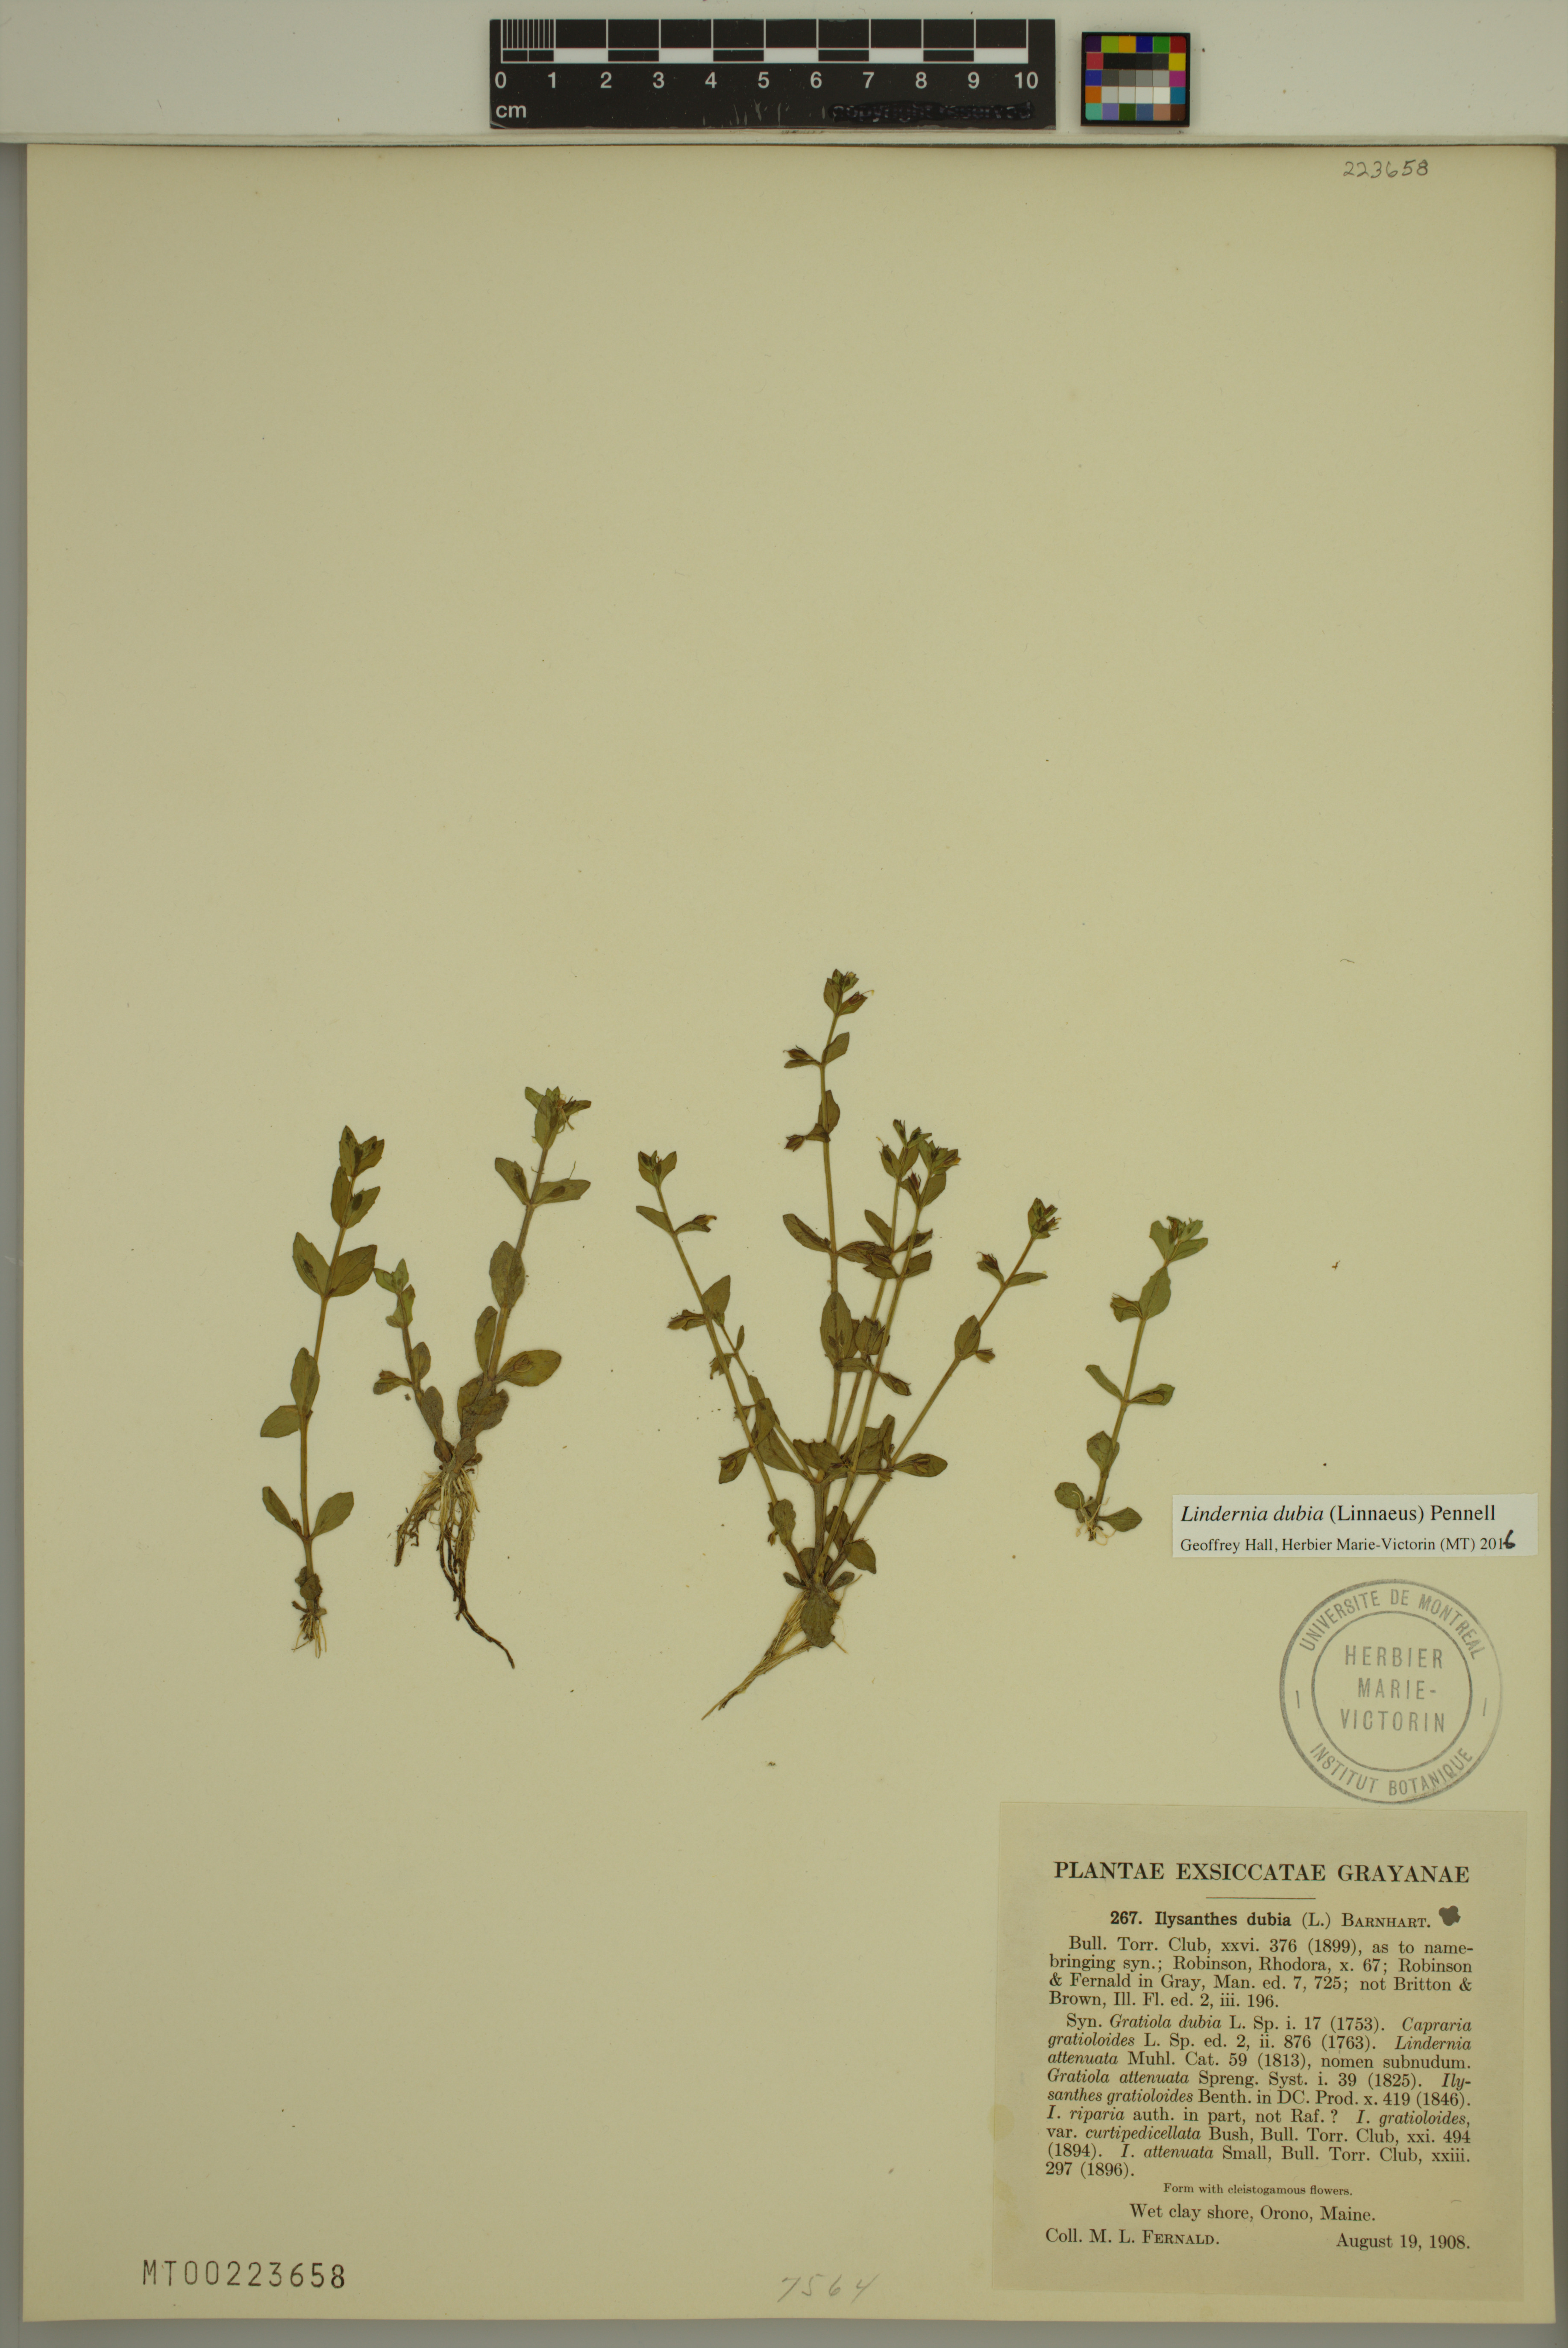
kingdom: Plantae
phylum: Tracheophyta
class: Magnoliopsida
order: Lamiales
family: Linderniaceae
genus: Lindernia
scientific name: Lindernia dubia
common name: Annual false pimpernel
